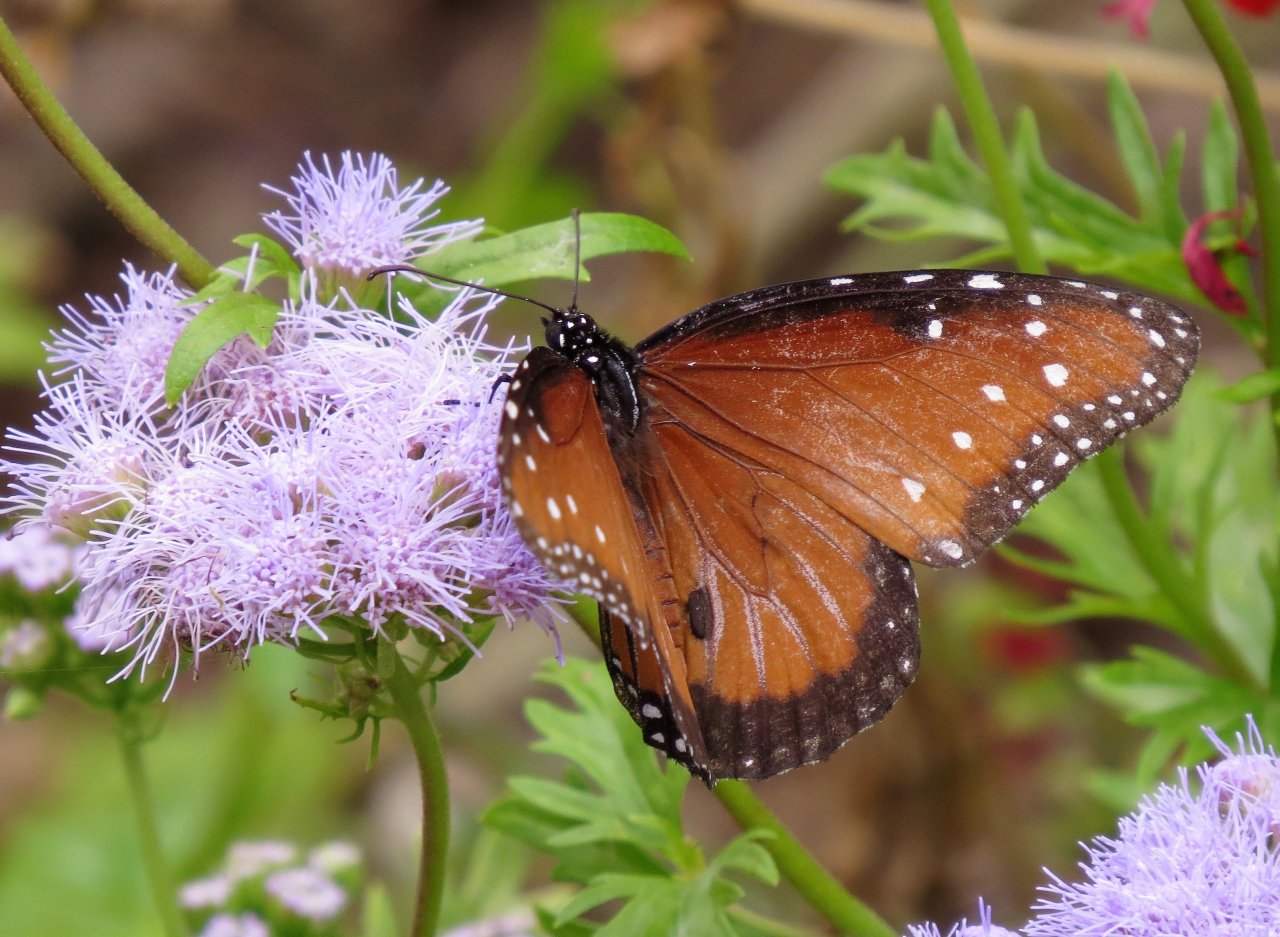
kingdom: Animalia
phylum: Arthropoda
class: Insecta
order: Lepidoptera
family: Nymphalidae
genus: Danaus
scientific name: Danaus gilippus
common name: Queen
